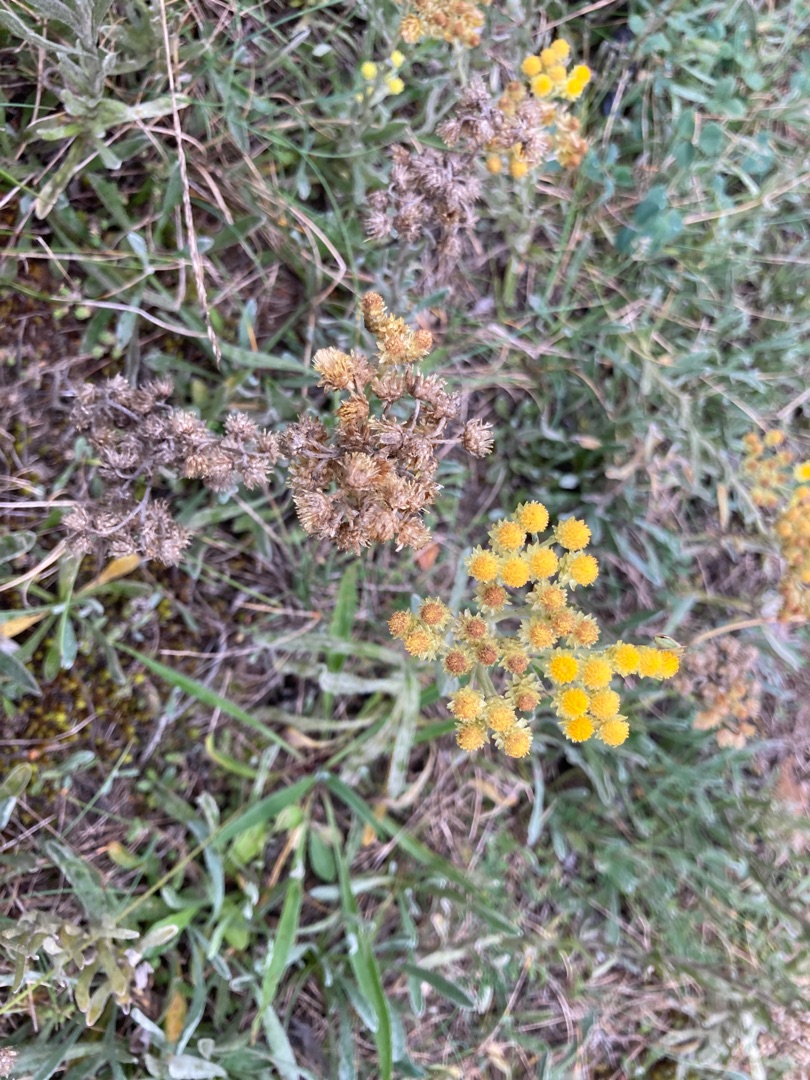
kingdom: Plantae
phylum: Tracheophyta
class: Magnoliopsida
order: Asterales
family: Asteraceae
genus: Helichrysum
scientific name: Helichrysum arenarium
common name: Gul evighedsblomst
